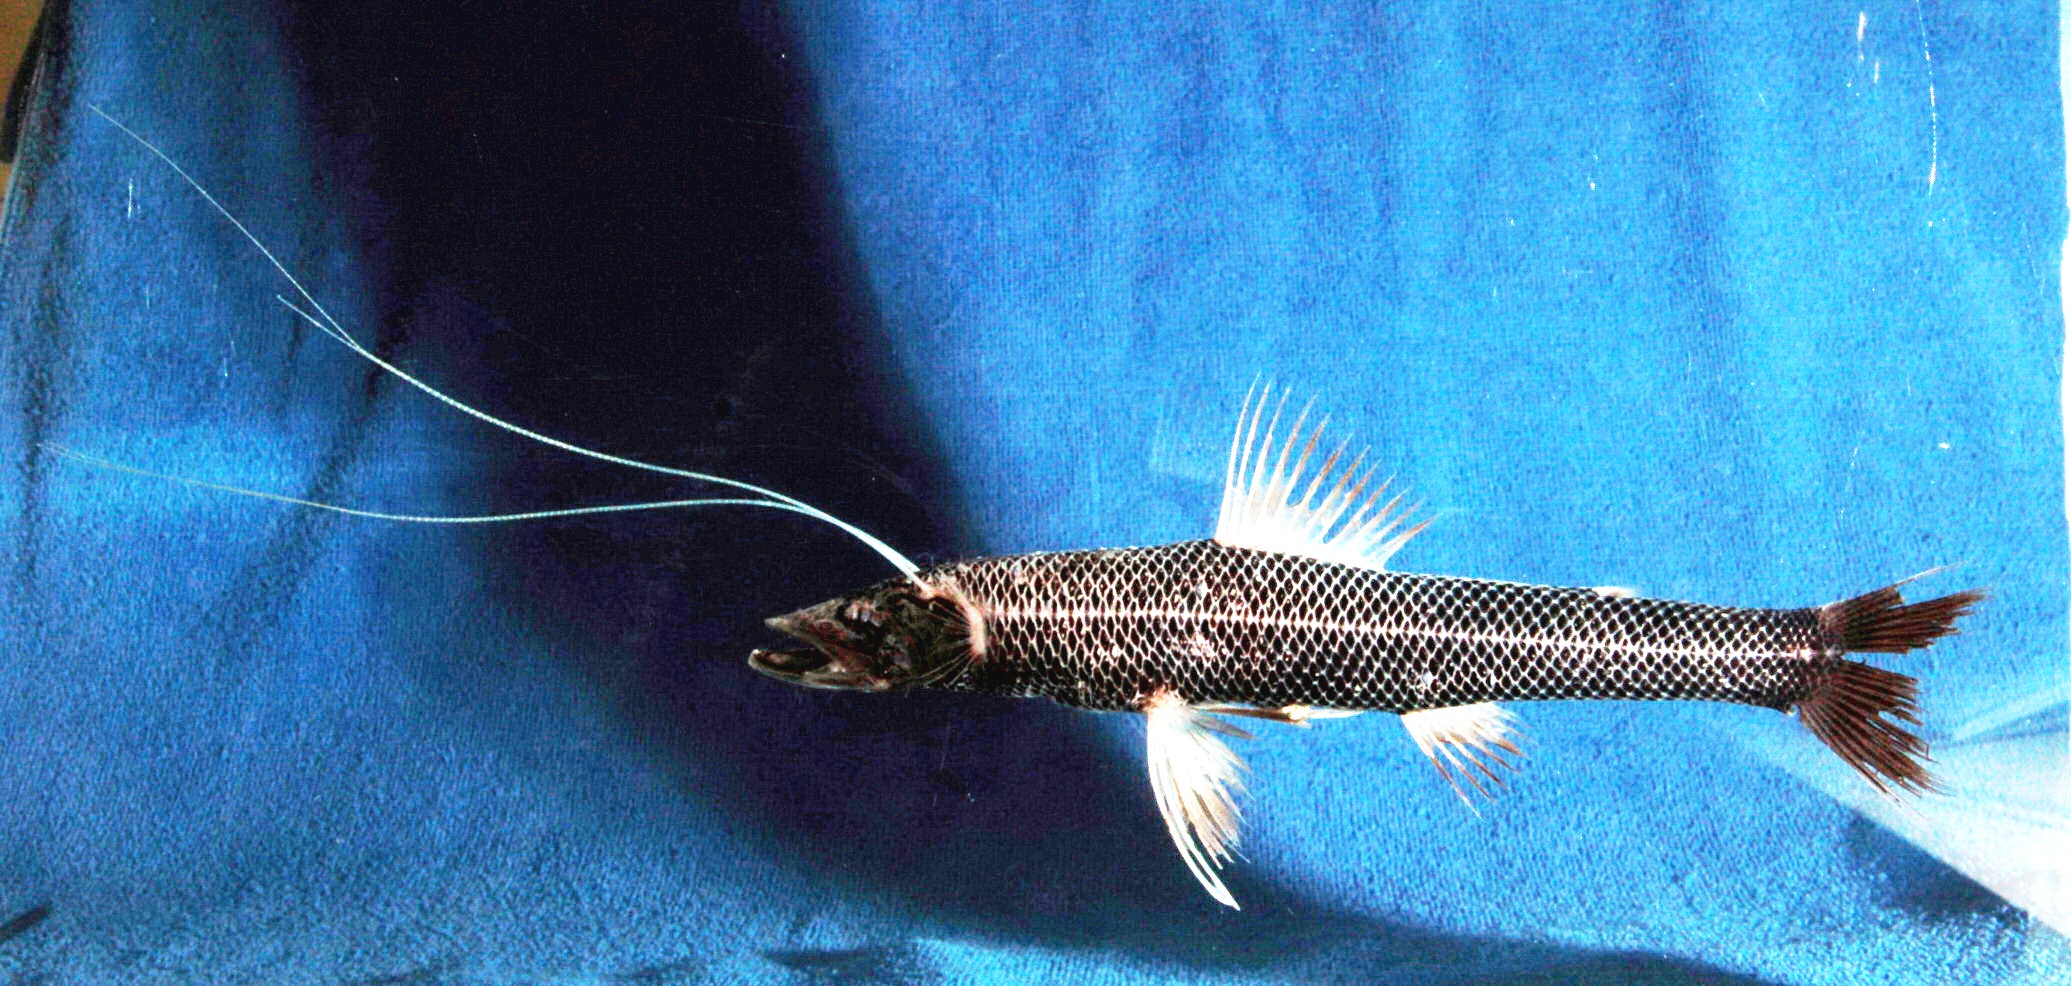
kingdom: Animalia
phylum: Chordata
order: Aulopiformes
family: Ipnopidae
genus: Bathypterois
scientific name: Bathypterois phenax
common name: Blackfin spiderfish
